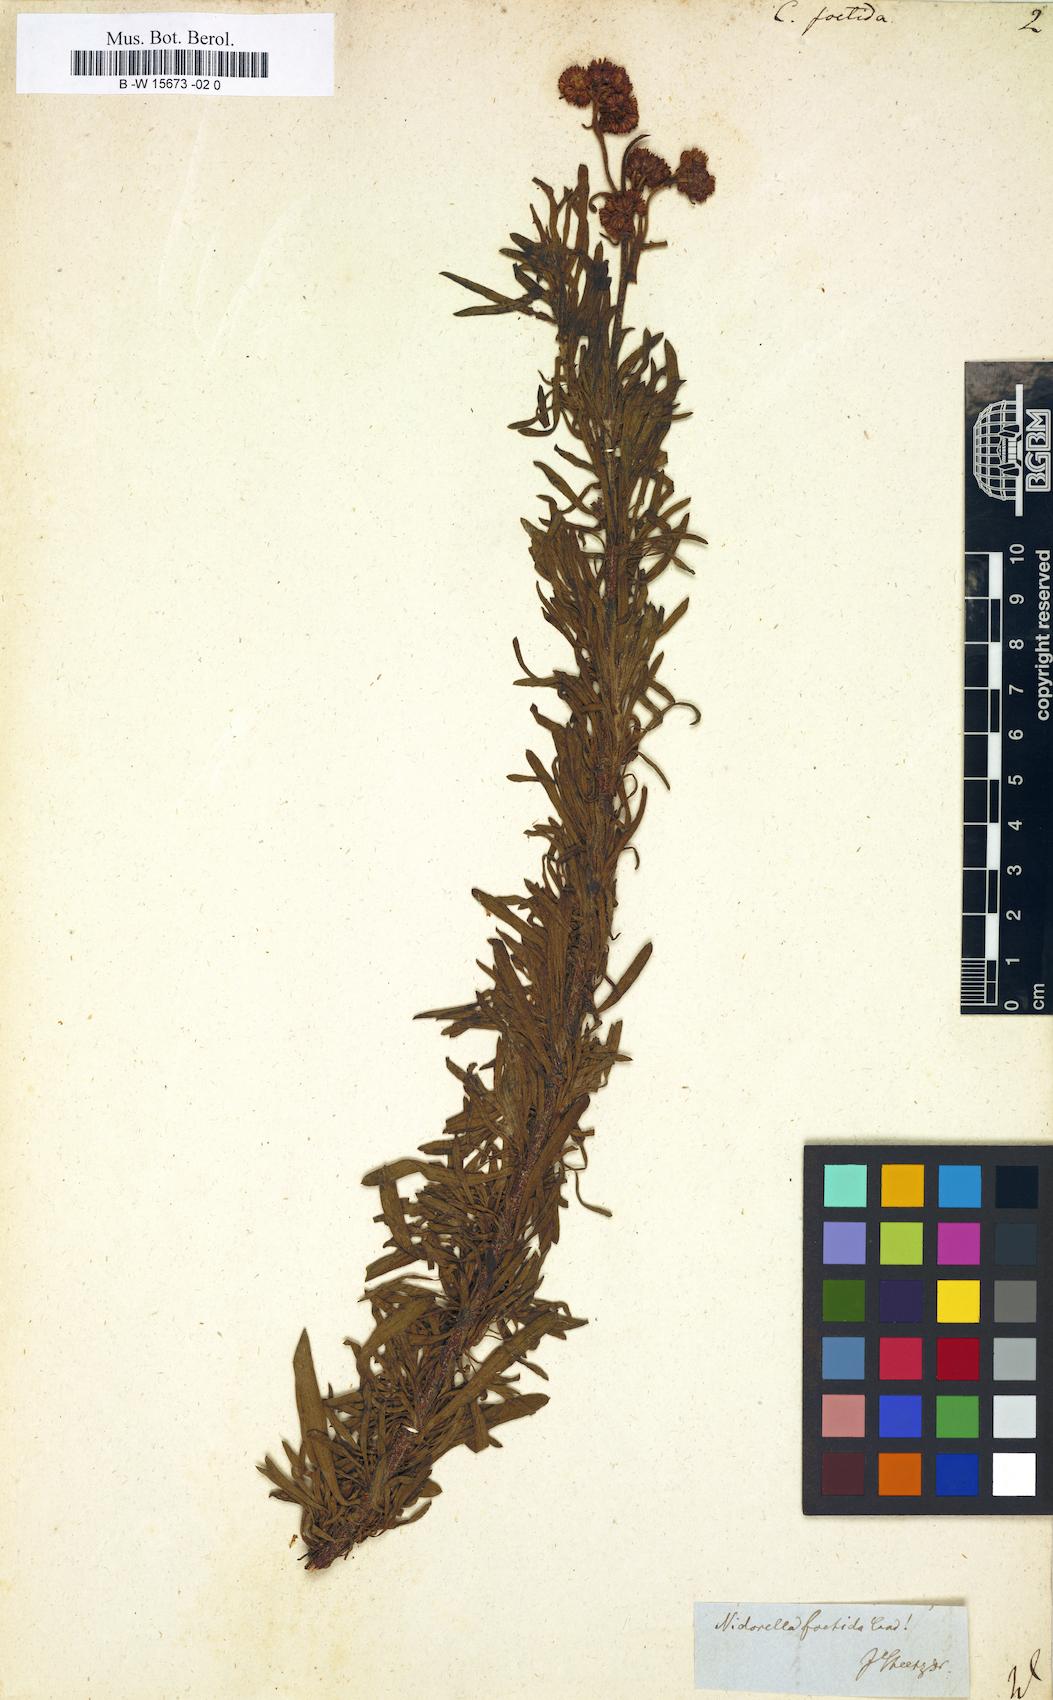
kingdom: Plantae
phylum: Tracheophyta
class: Magnoliopsida
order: Asterales
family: Asteraceae
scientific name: Asteraceae
